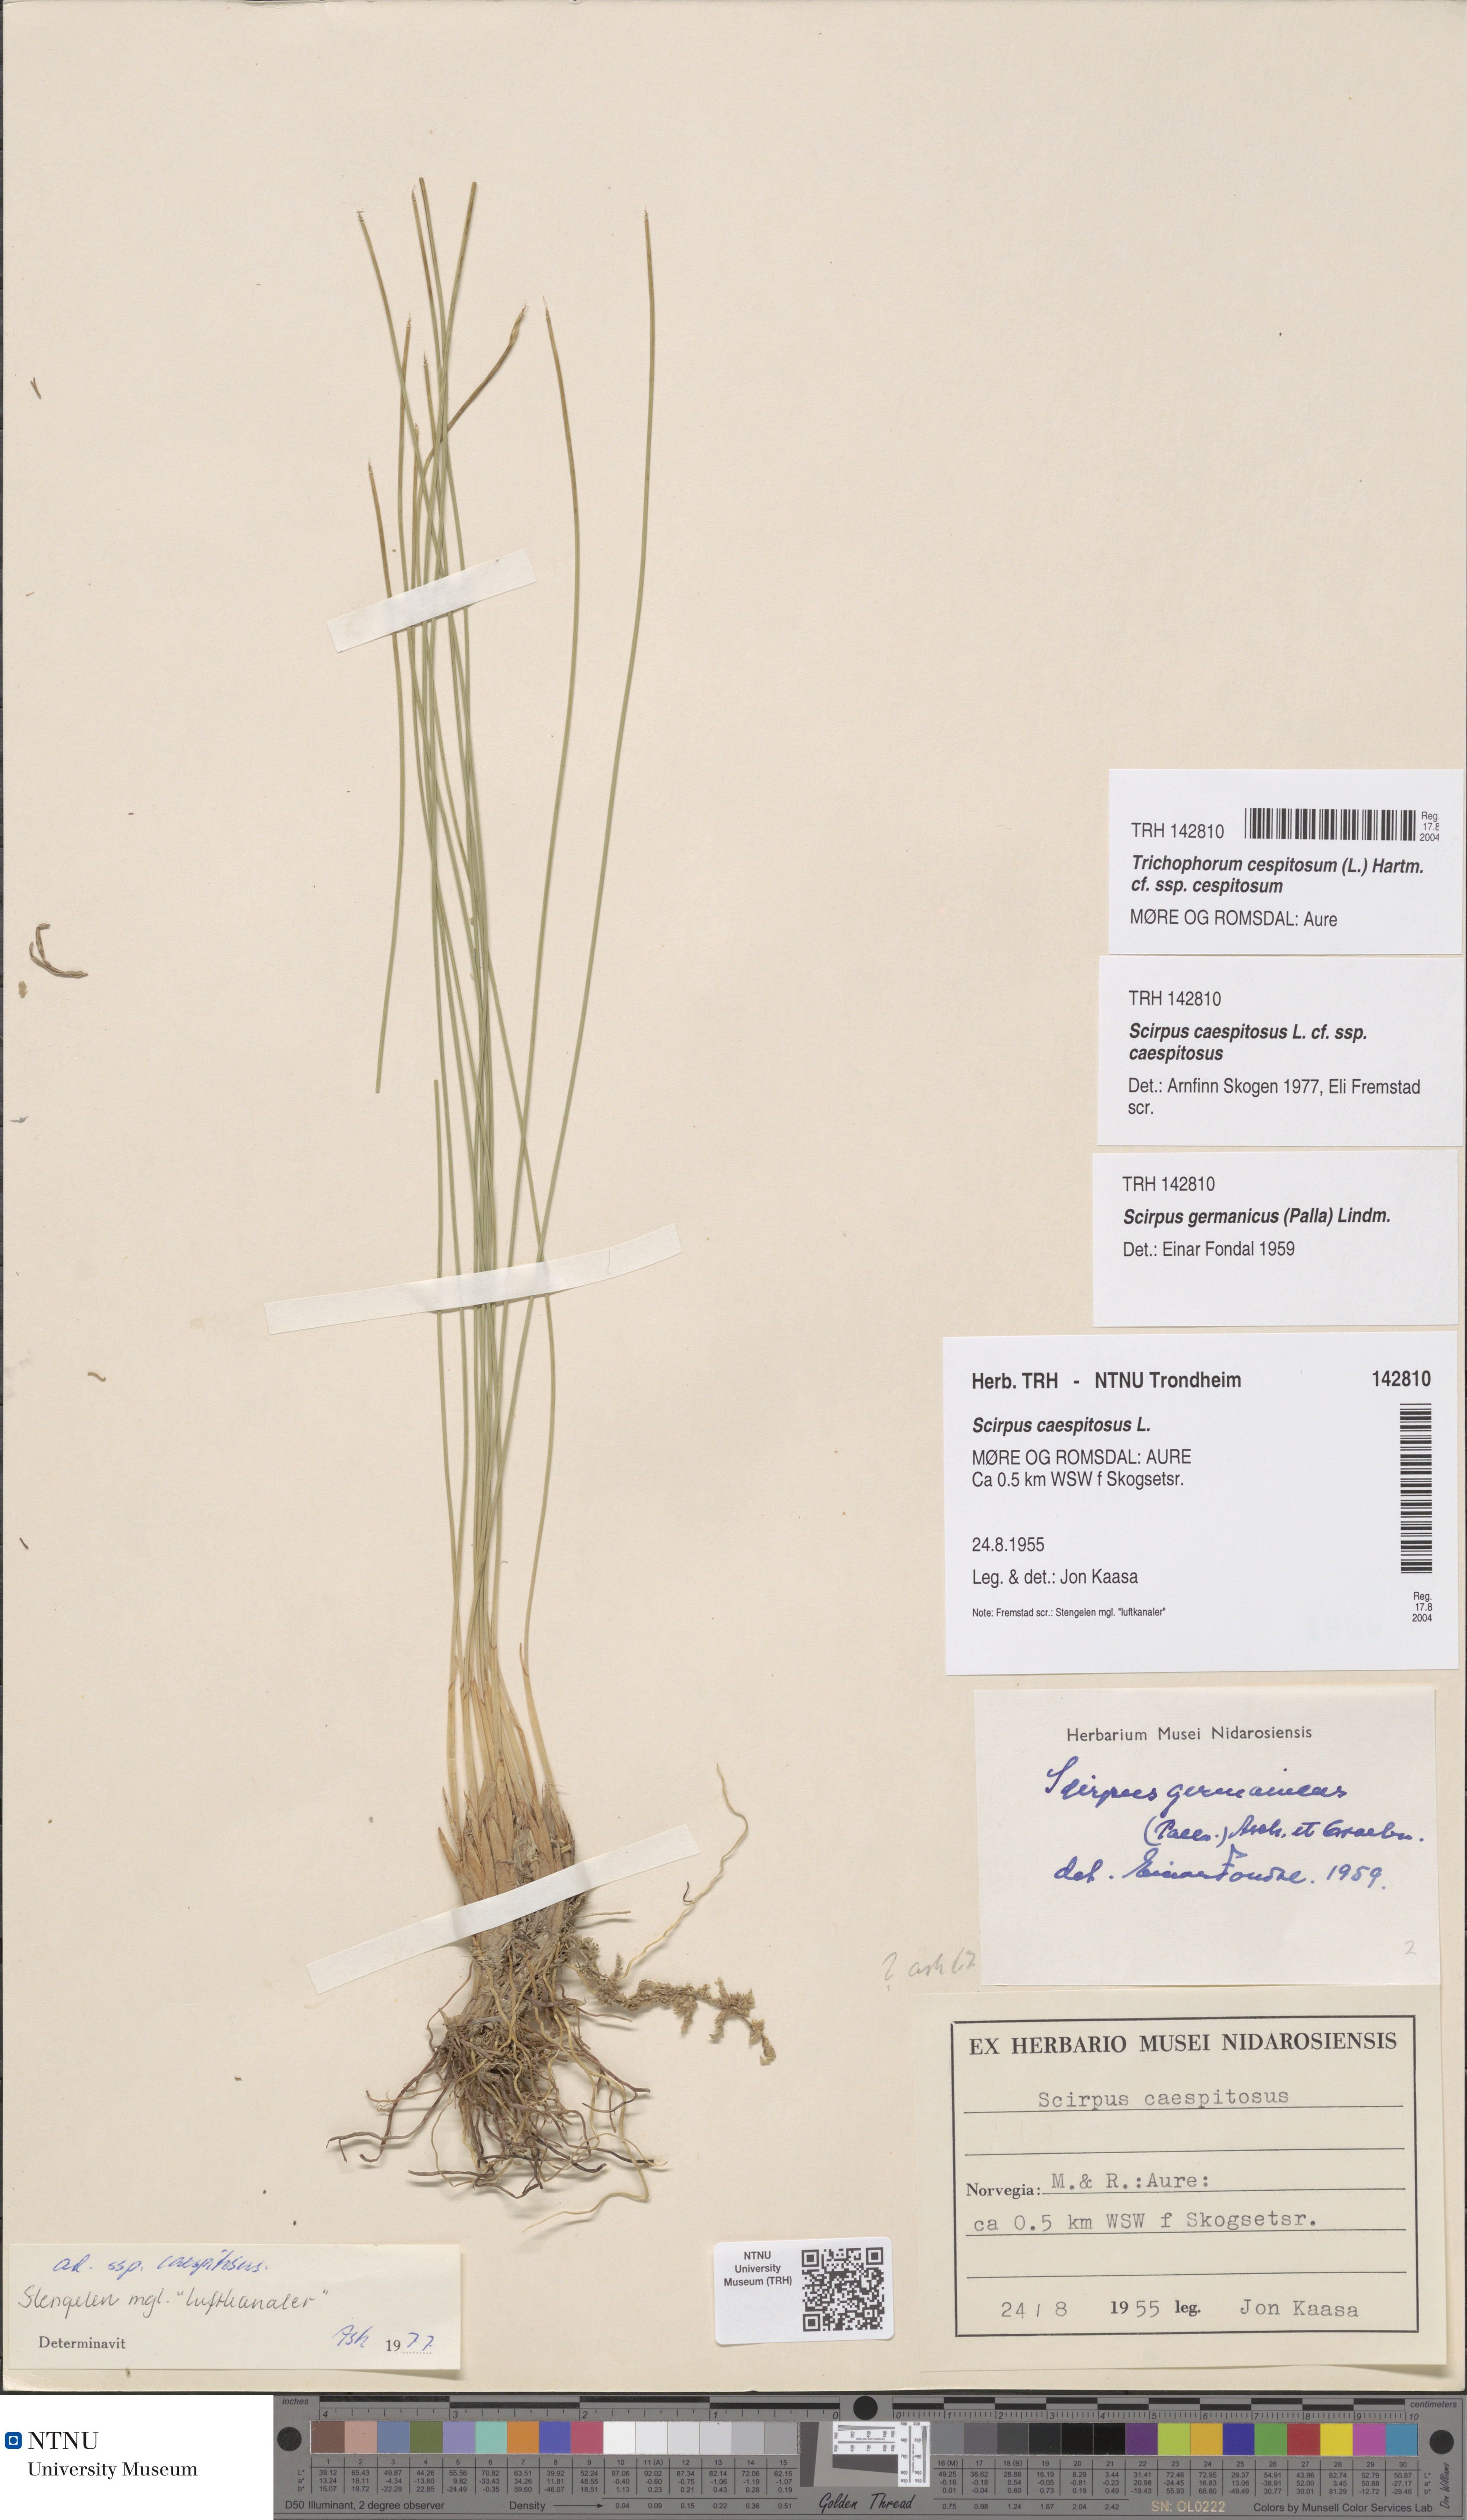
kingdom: Plantae
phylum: Tracheophyta
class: Liliopsida
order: Poales
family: Cyperaceae
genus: Trichophorum
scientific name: Trichophorum cespitosum
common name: Cespitose bulrush
